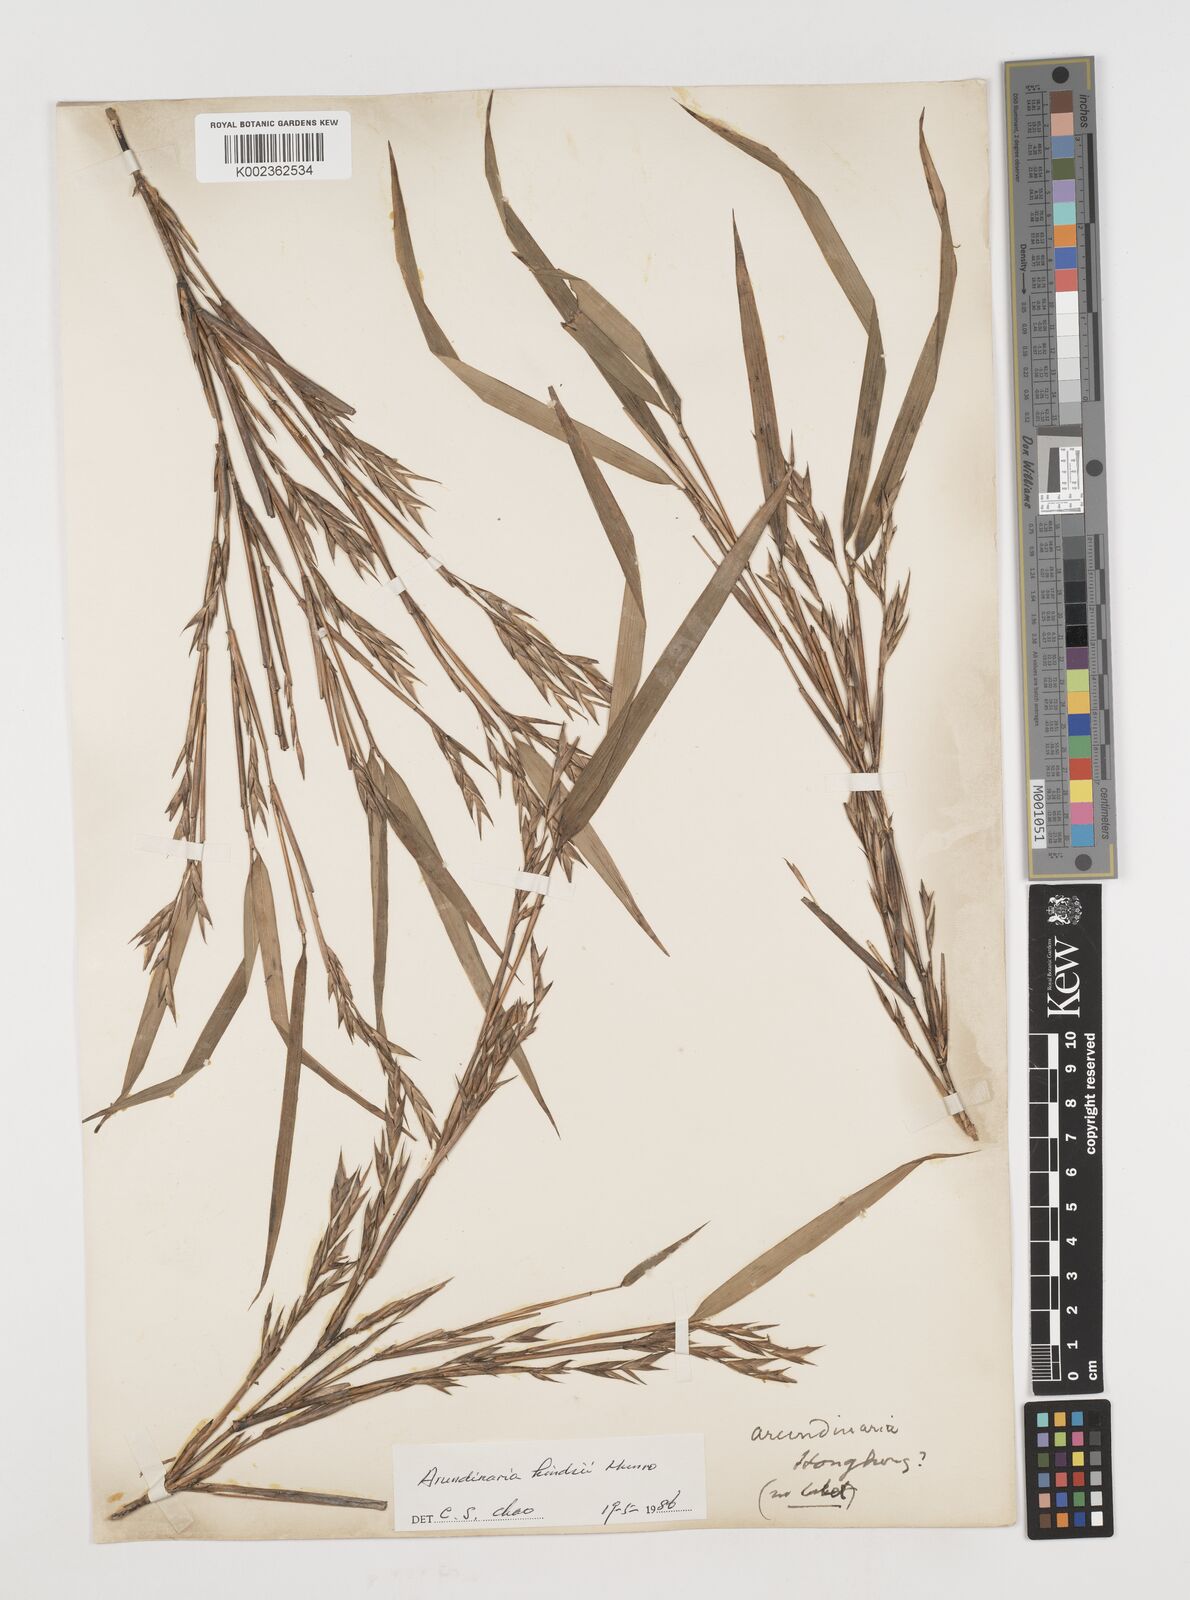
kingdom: Plantae
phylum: Tracheophyta
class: Liliopsida
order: Poales
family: Poaceae
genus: Pseudosasa
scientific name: Pseudosasa hindsii
